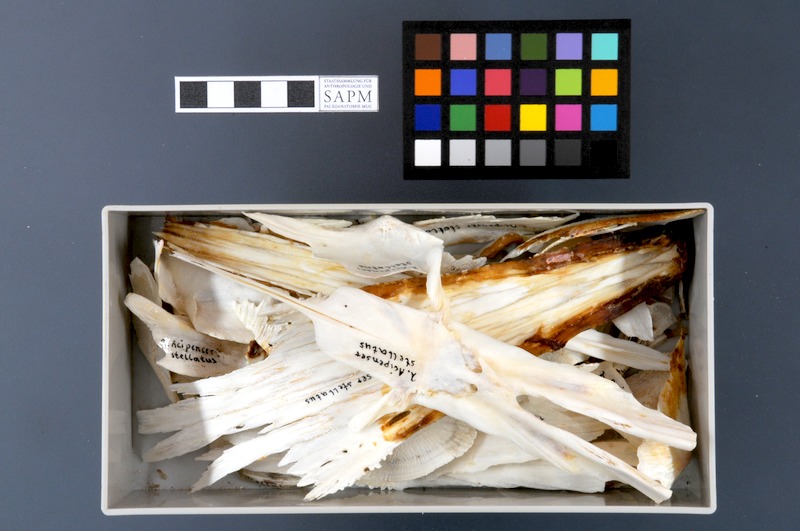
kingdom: Animalia
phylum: Chordata
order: Acipenseriformes
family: Acipenseridae
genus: Acipenser
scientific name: Acipenser stellatus
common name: Stellate sturgeon
